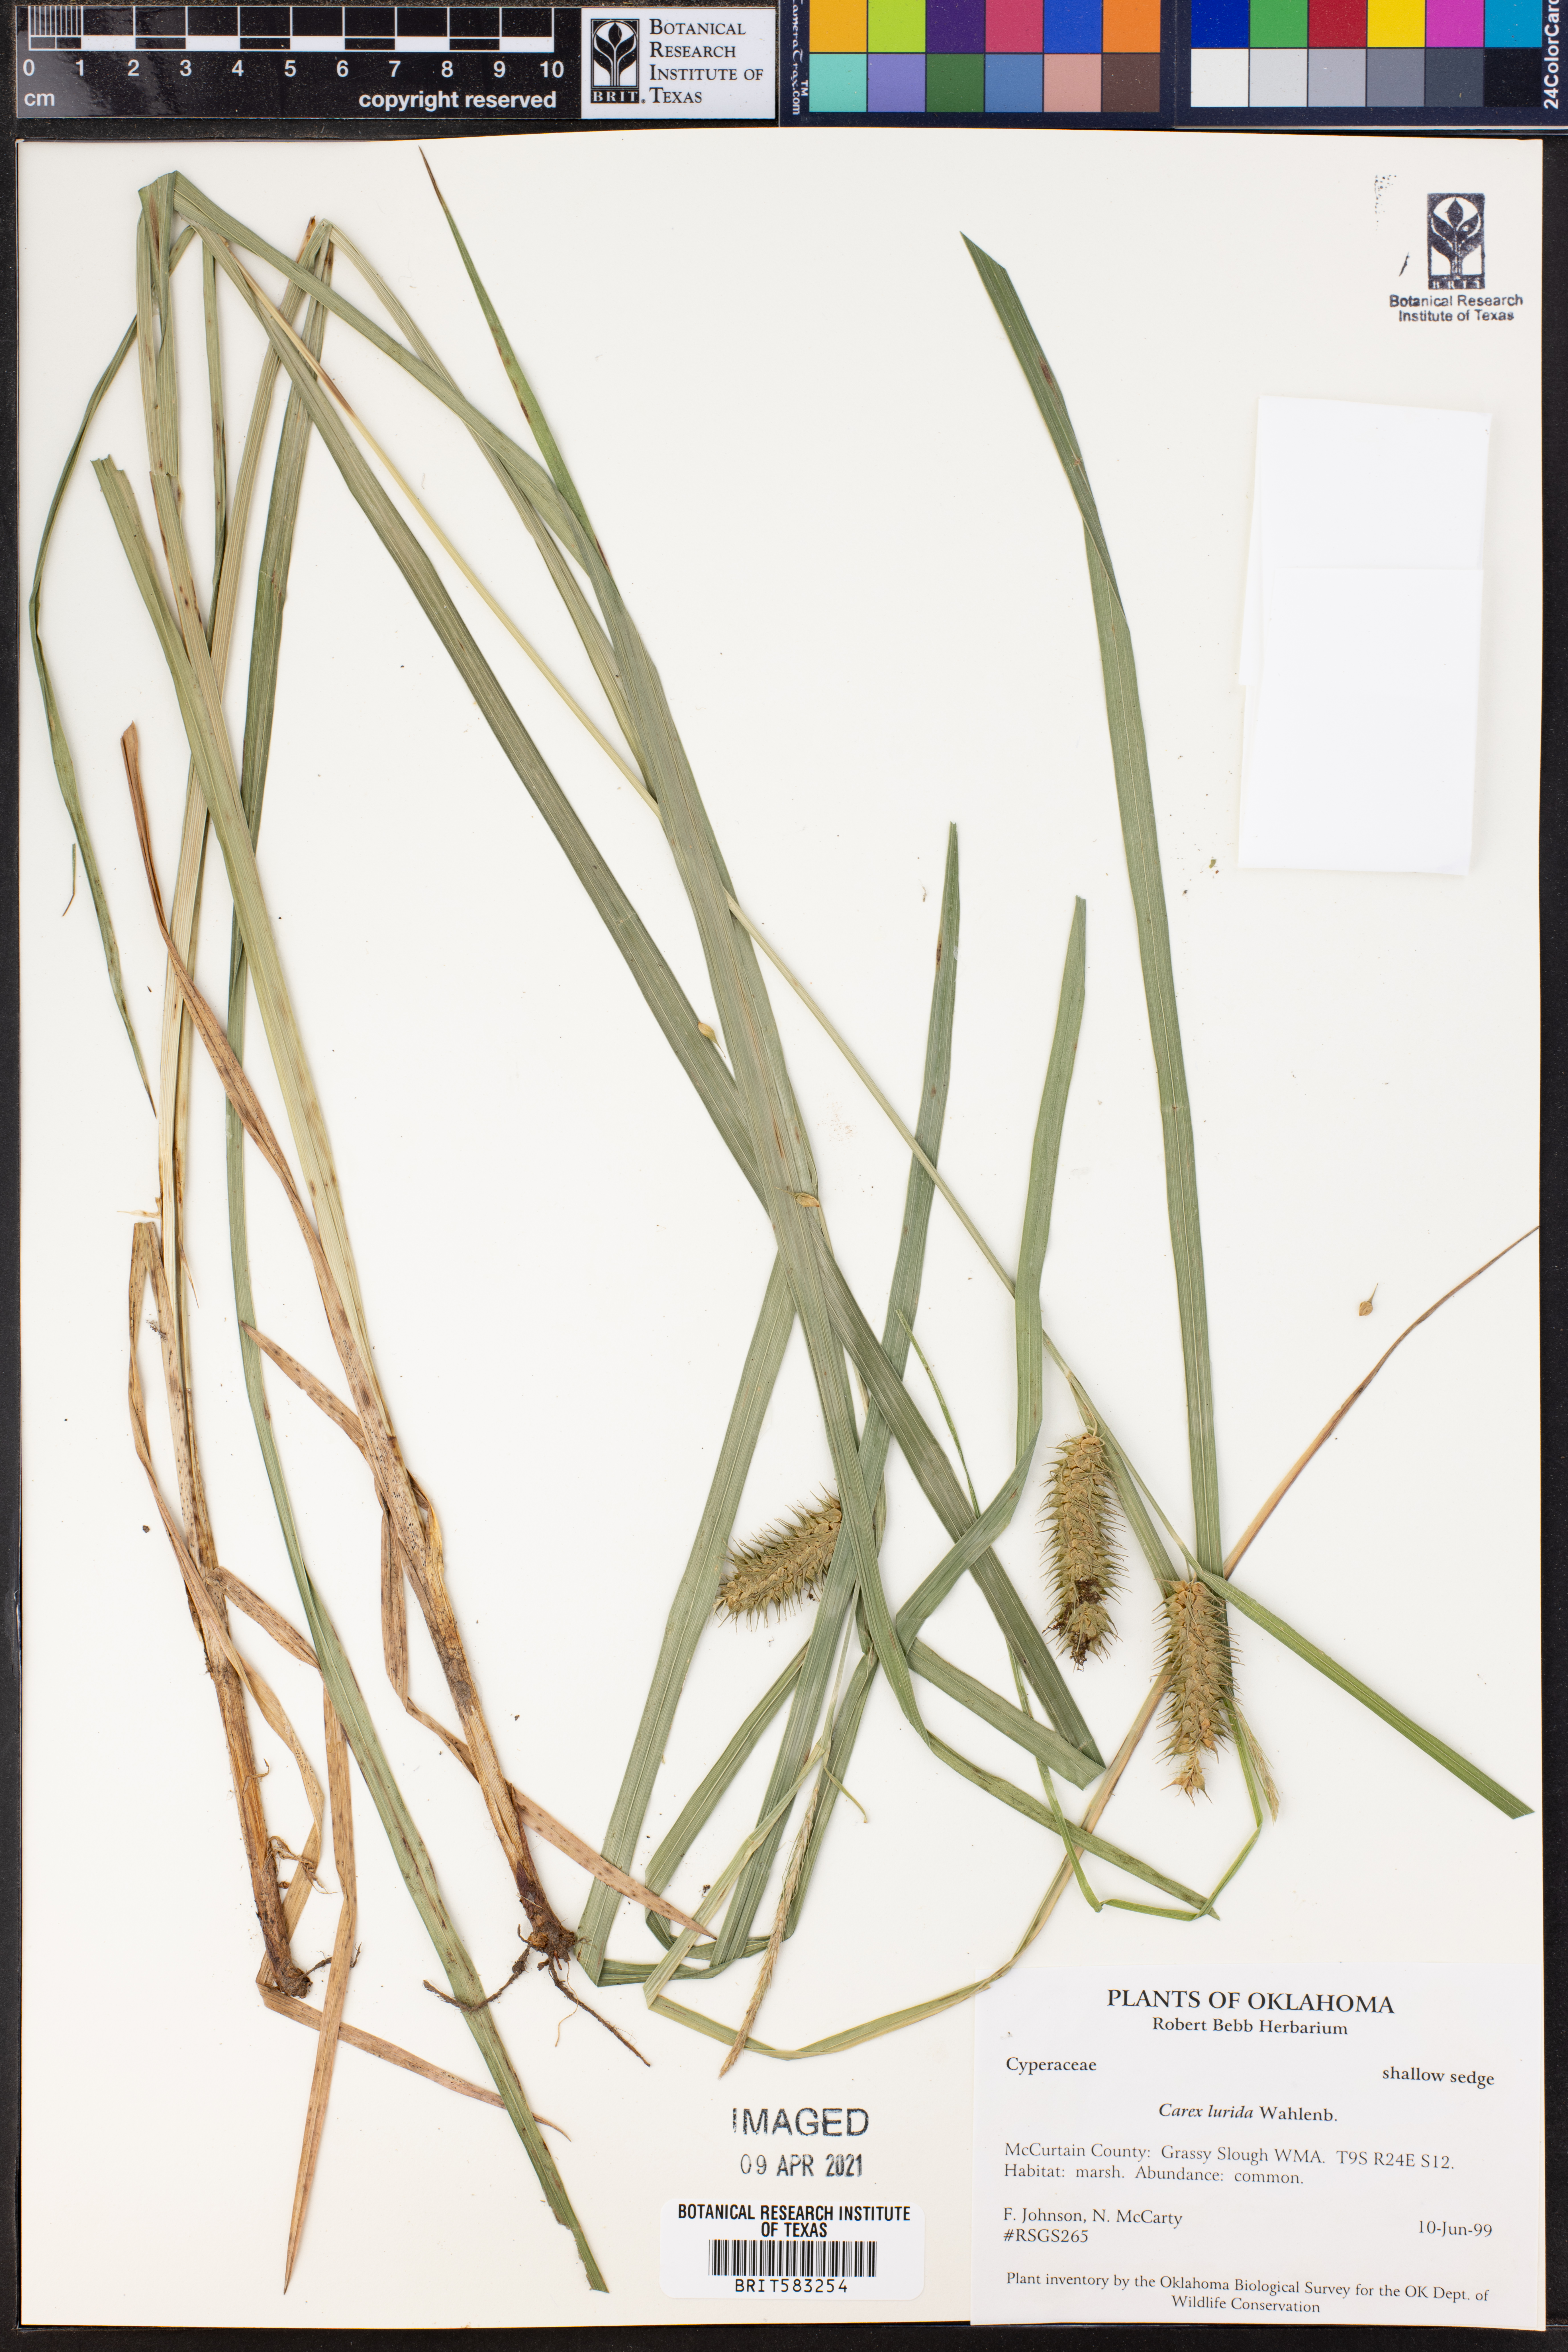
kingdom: Plantae
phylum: Tracheophyta
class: Liliopsida
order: Poales
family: Cyperaceae
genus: Carex
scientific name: Carex lurida
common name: Sallow sedge
